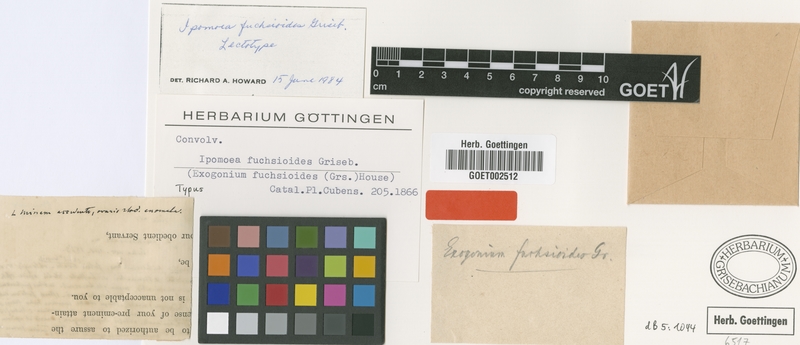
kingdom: Plantae
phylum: Tracheophyta
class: Magnoliopsida
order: Solanales
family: Convolvulaceae
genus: Ipomoea
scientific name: Ipomoea fuchsioides
